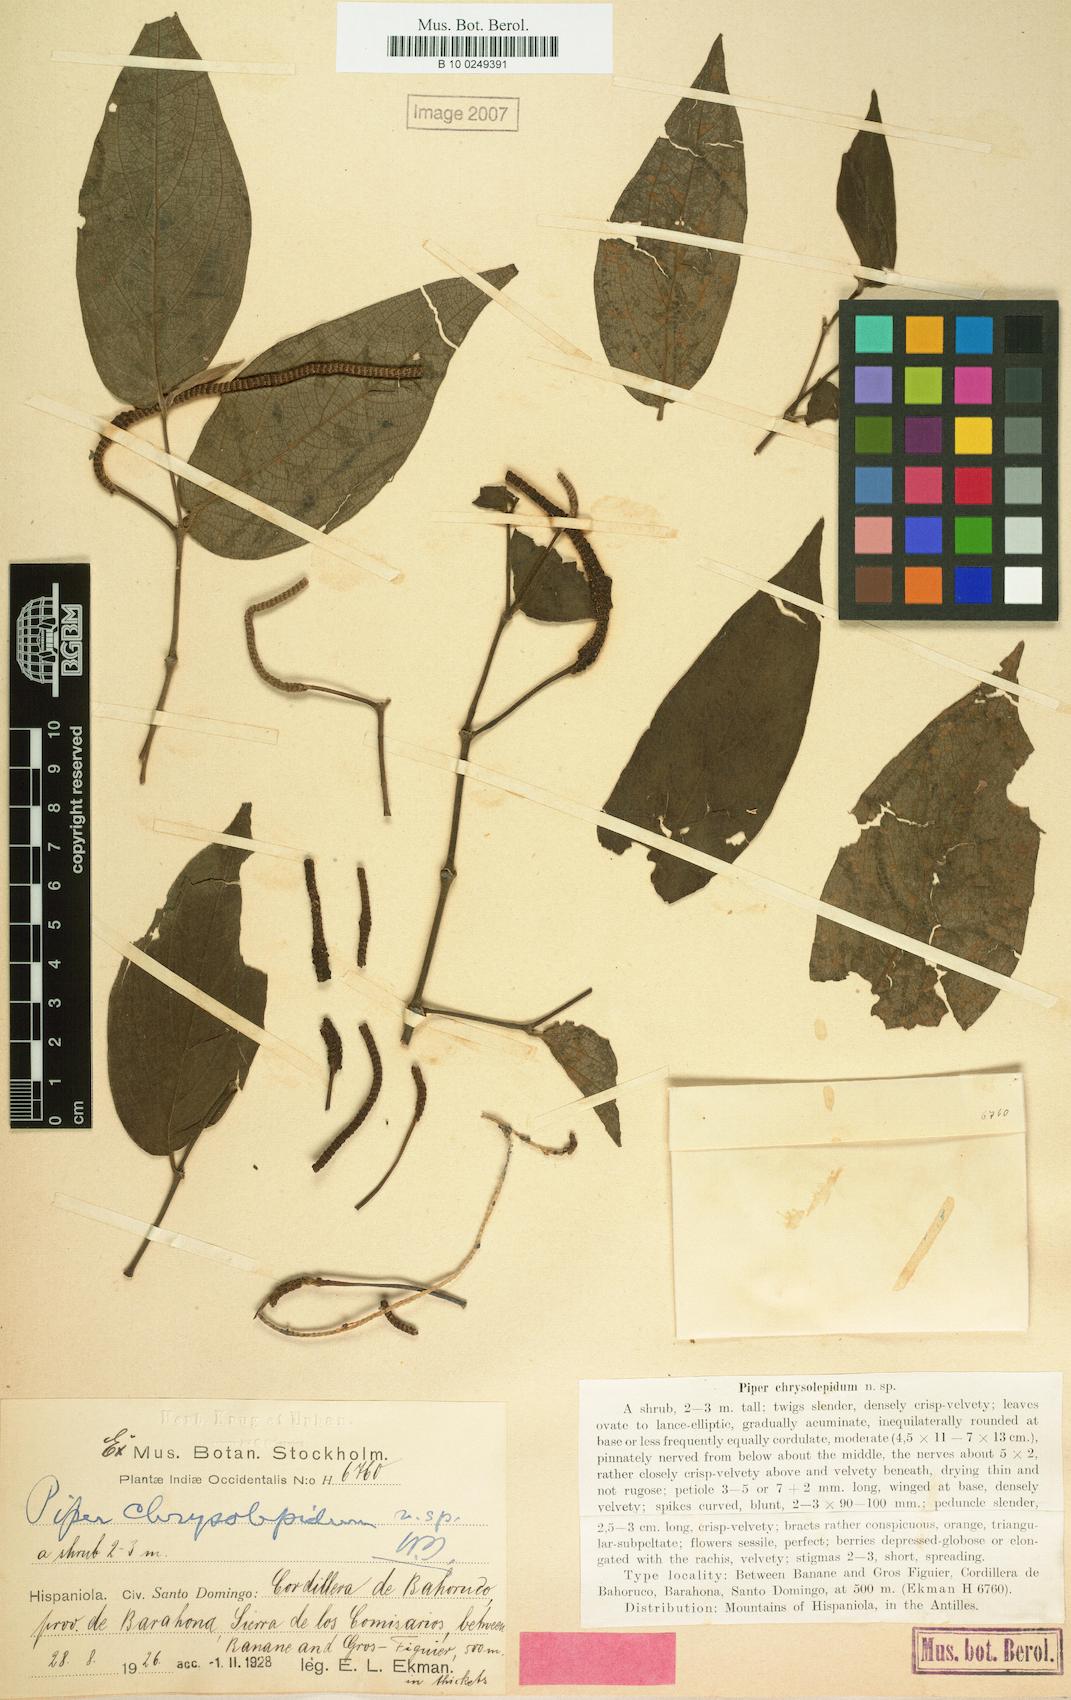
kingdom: Plantae
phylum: Tracheophyta
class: Magnoliopsida
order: Piperales
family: Piperaceae
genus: Piper
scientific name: Piper atropremnon
